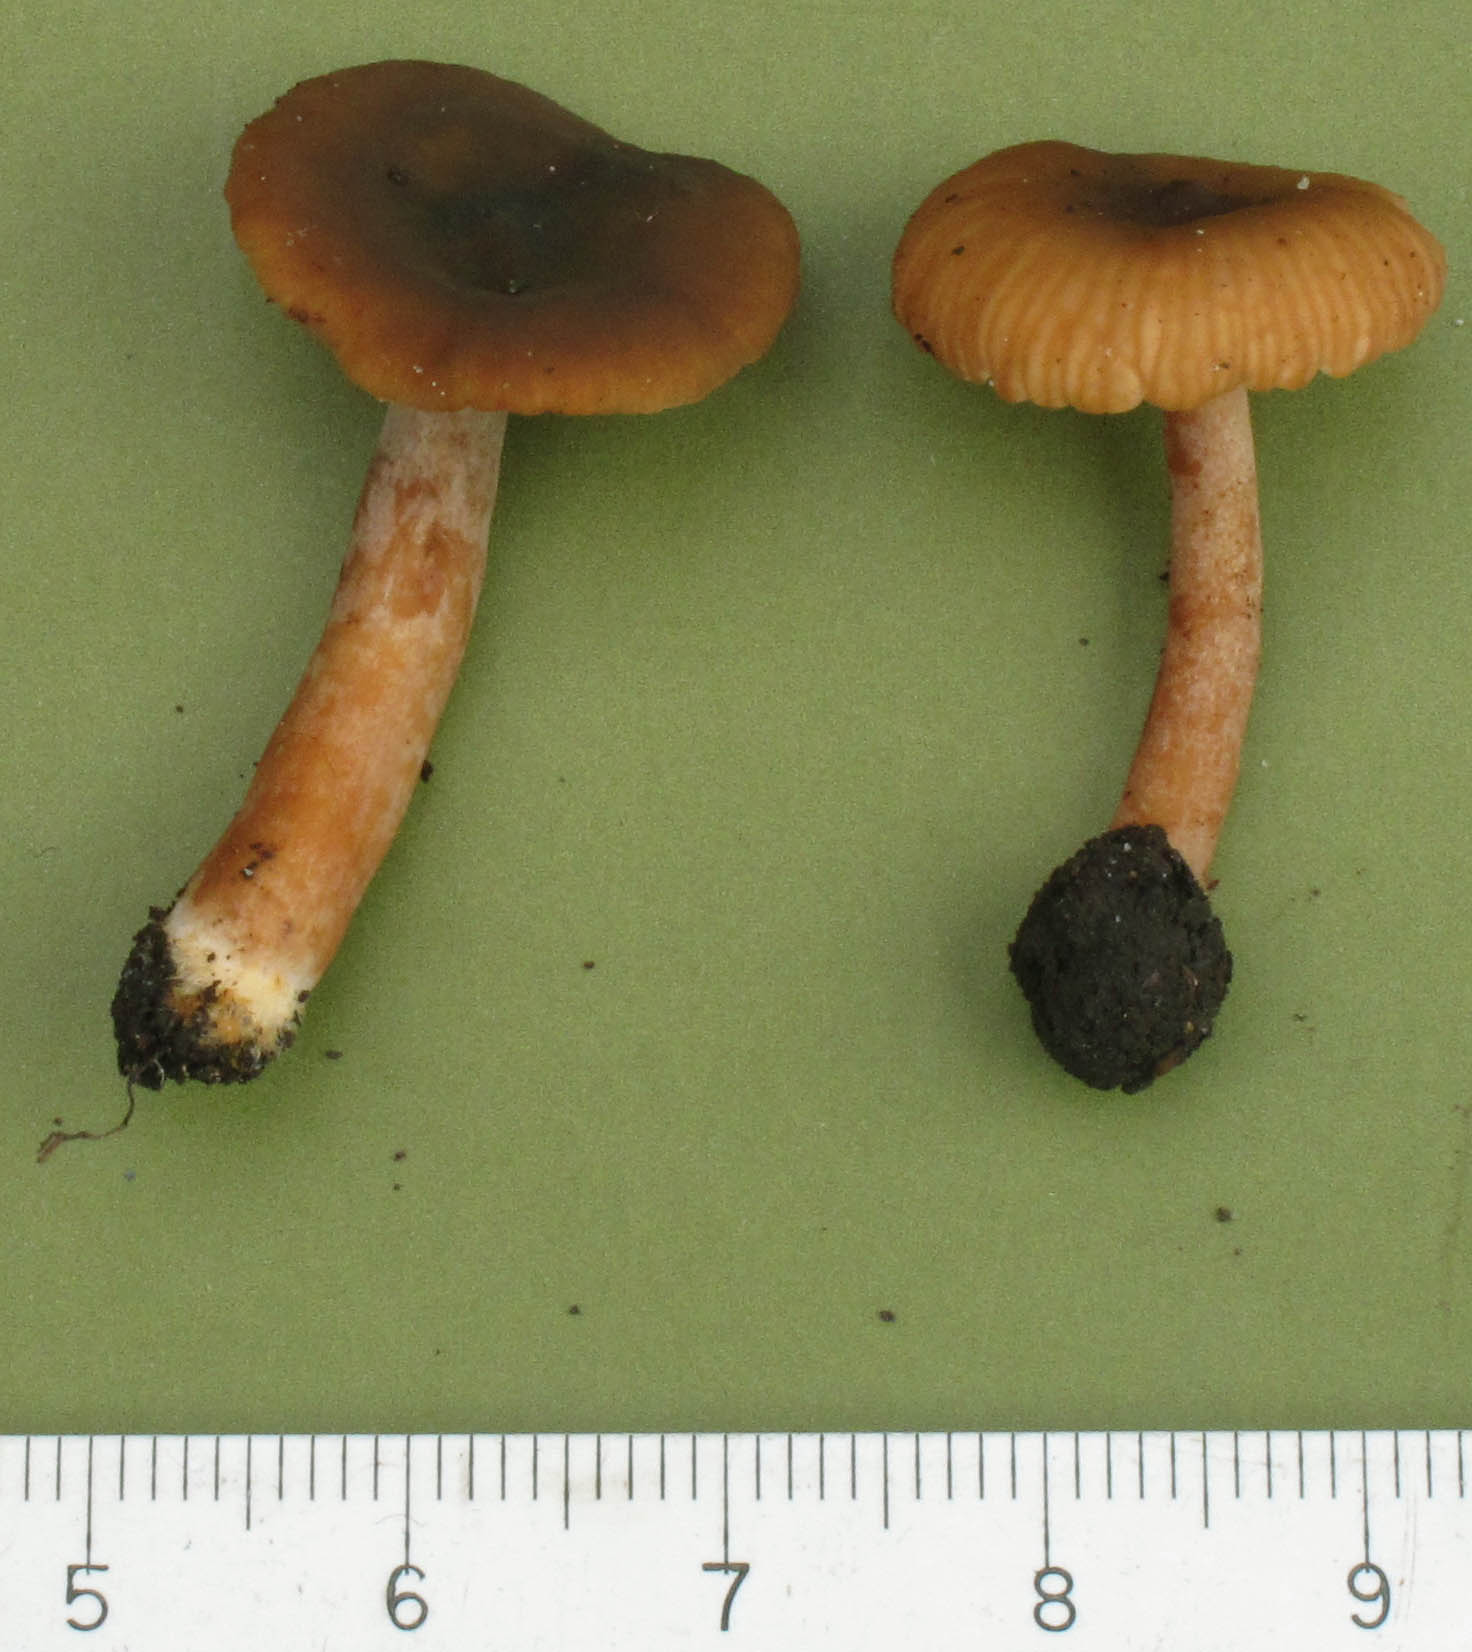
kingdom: Fungi
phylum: Basidiomycota
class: Agaricomycetes
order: Russulales
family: Russulaceae
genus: Lactarius
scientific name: Lactarius cyathuliformis
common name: mørkøjet mælkehat
